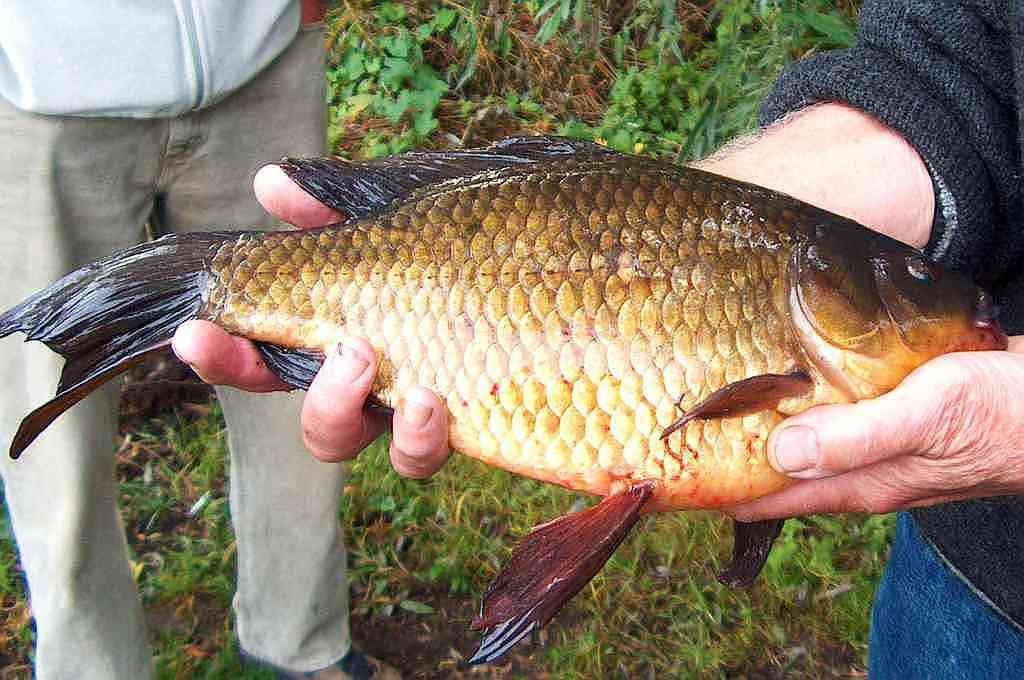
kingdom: Animalia
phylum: Chordata
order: Cypriniformes
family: Cyprinidae
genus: Carassius
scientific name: Carassius auratus
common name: Sølvkarusse
